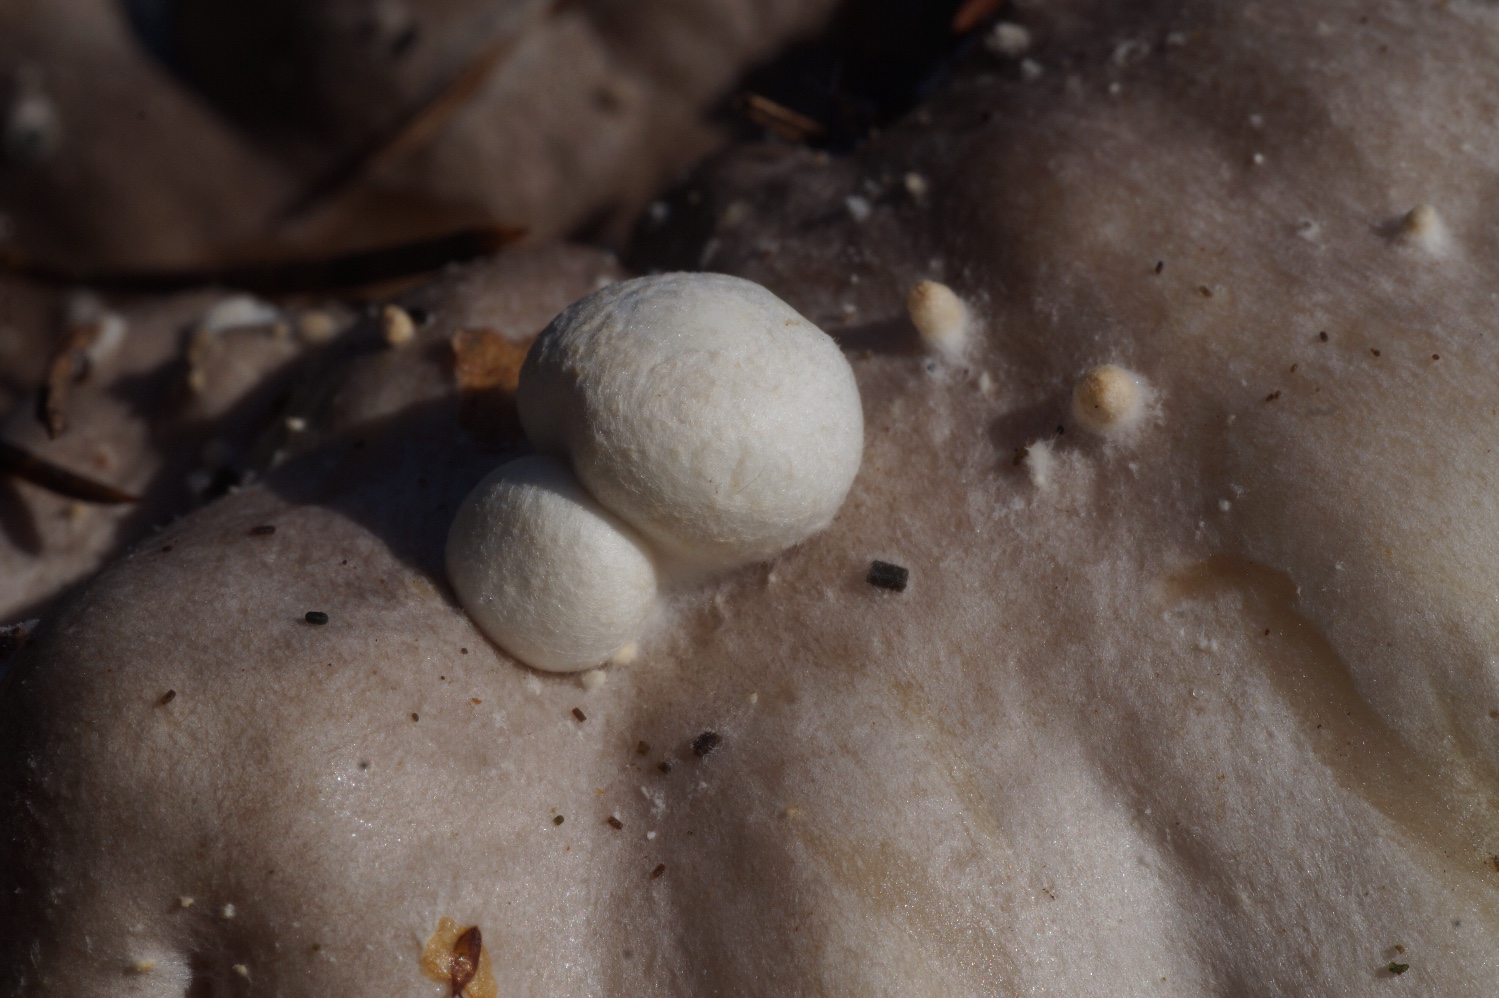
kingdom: Fungi
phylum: Basidiomycota
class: Agaricomycetes
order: Agaricales
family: Pluteaceae
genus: Volvariella
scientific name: Volvariella surrecta
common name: snyltende posesvamp
